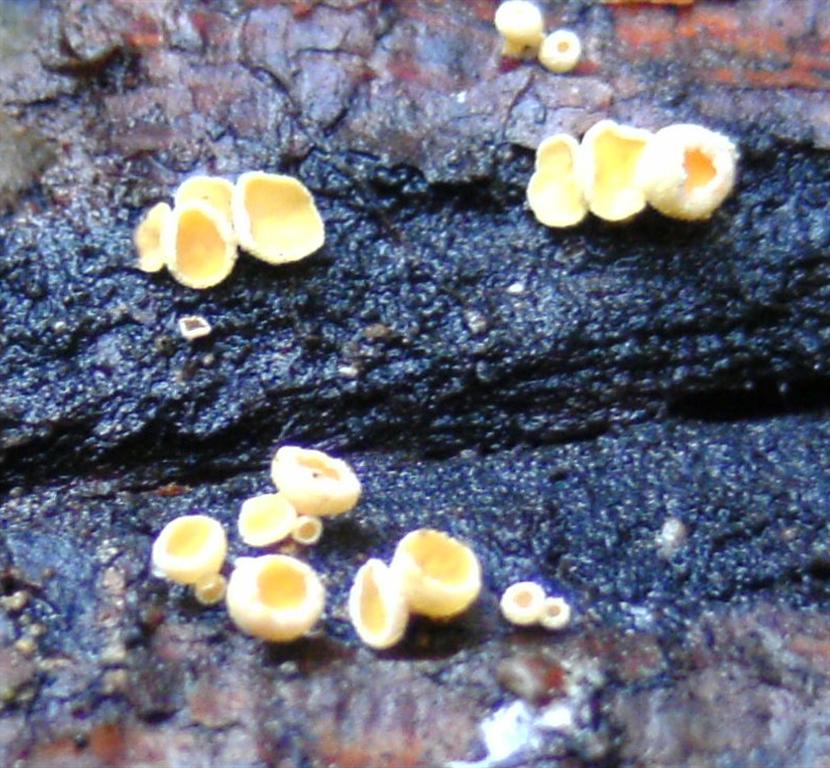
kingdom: Fungi
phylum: Ascomycota
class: Leotiomycetes
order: Helotiales
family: Lachnaceae
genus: Lachnellula
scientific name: Lachnellula subtilissima
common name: gran-frynseskive
